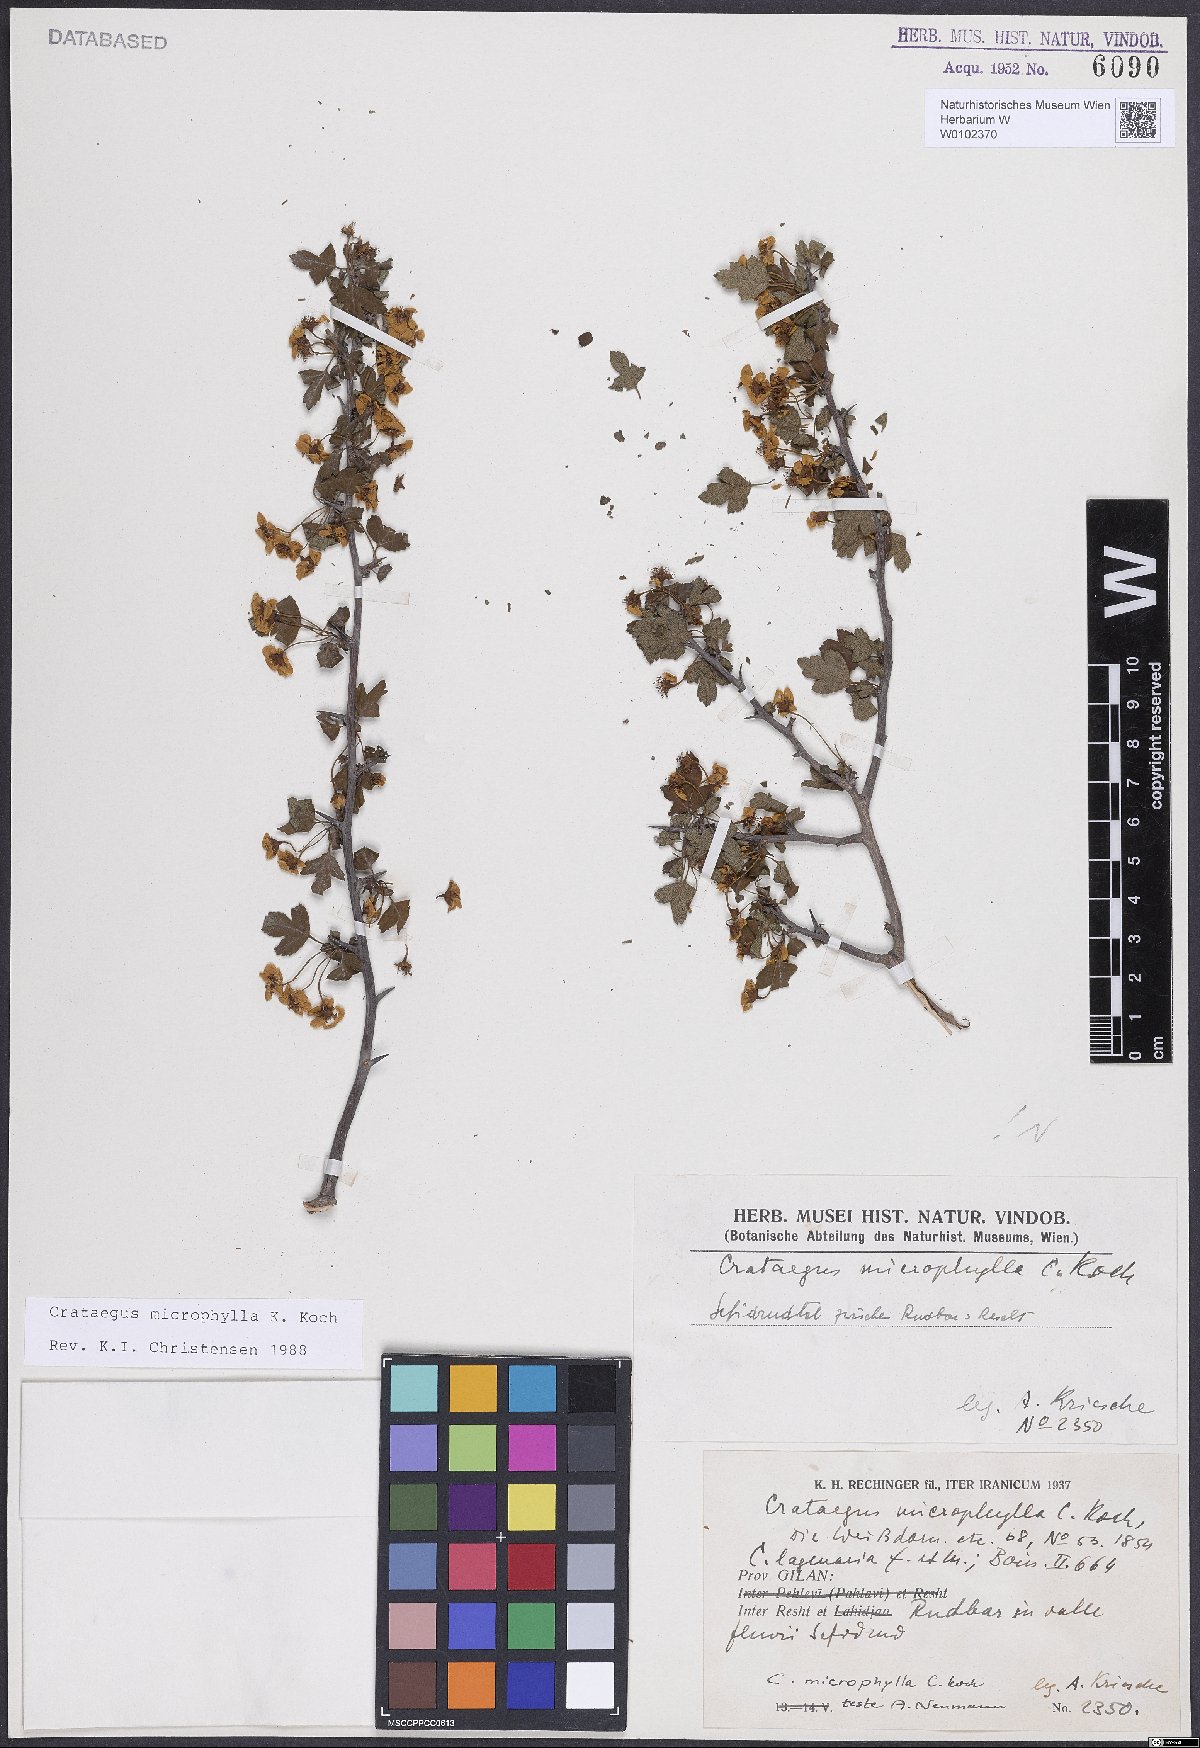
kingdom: Plantae
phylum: Tracheophyta
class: Magnoliopsida
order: Rosales
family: Rosaceae
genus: Crataegus
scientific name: Crataegus microphylla
